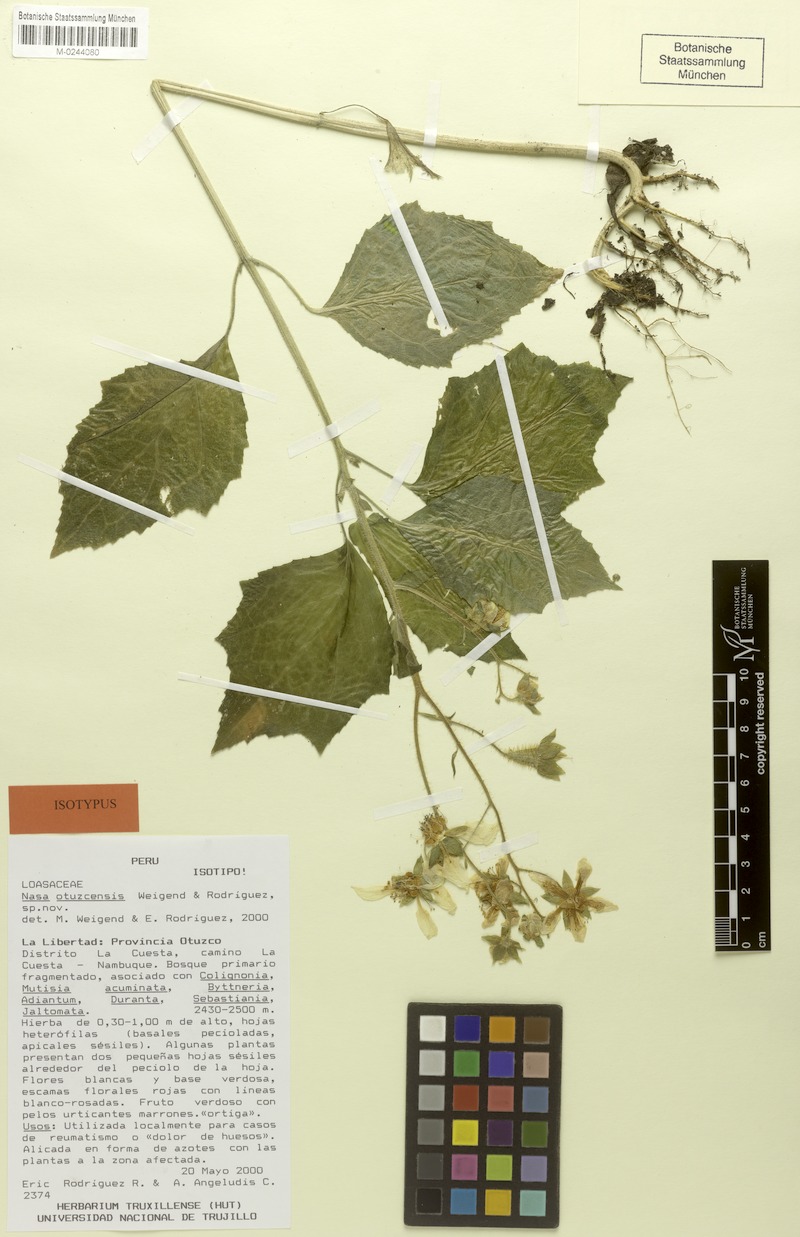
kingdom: Plantae
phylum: Tracheophyta
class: Magnoliopsida
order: Cornales
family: Loasaceae
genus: Nasa
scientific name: Nasa otuzcensis
